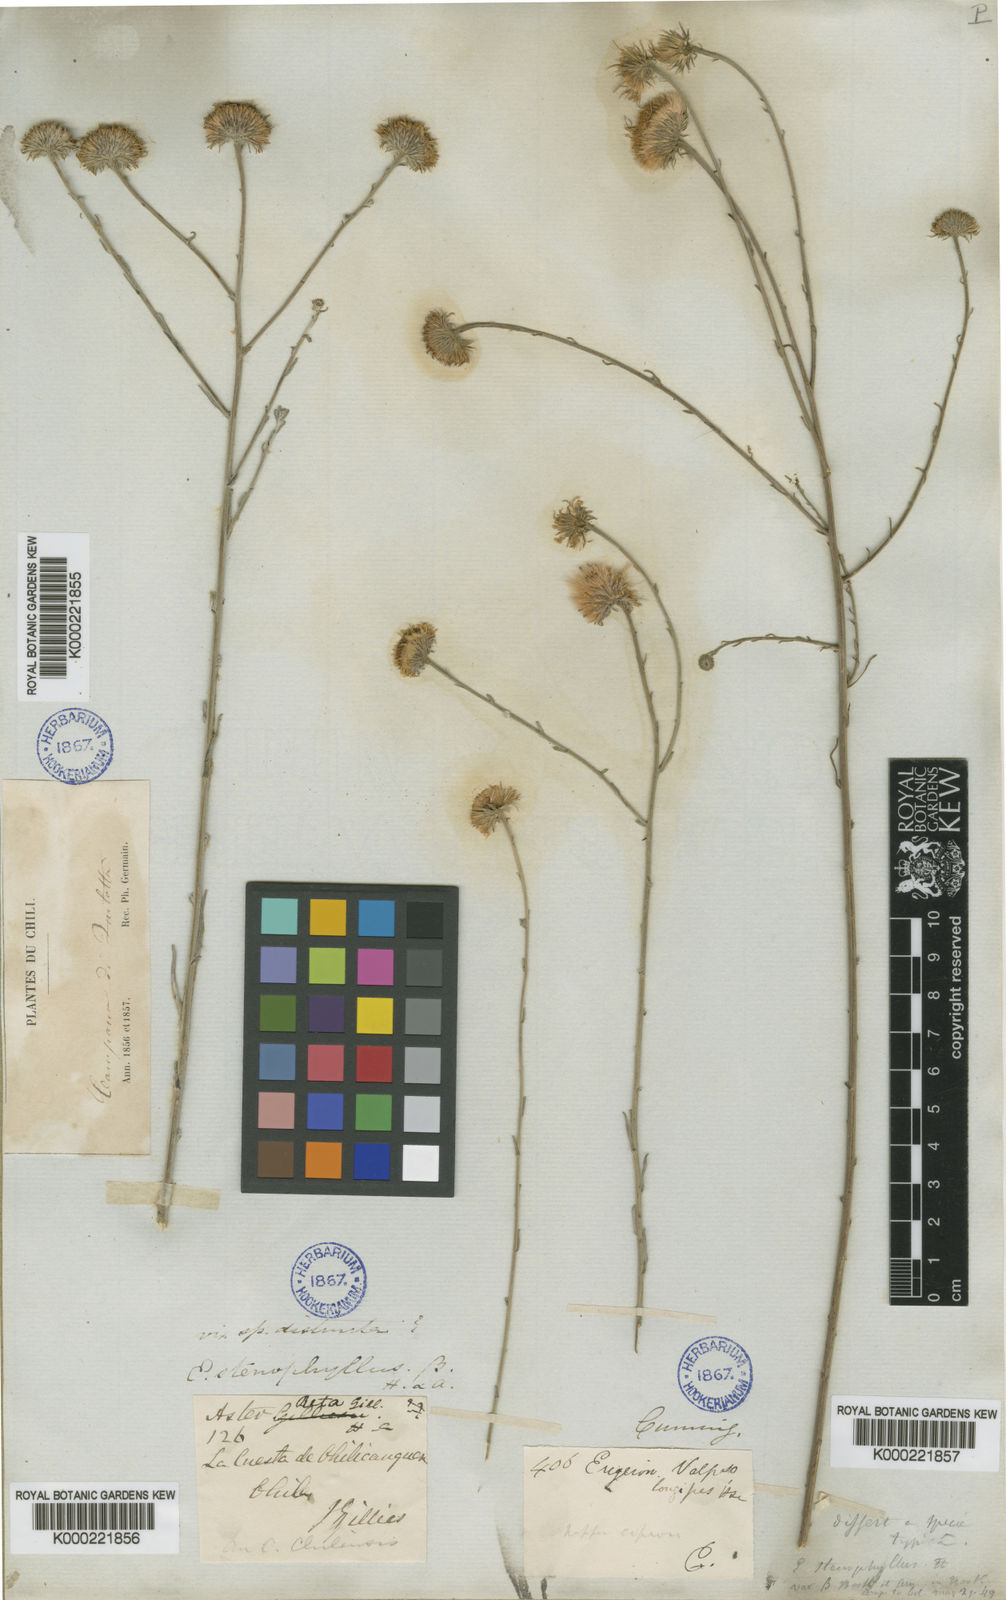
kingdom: Plantae
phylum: Tracheophyta
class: Magnoliopsida
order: Asterales
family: Asteraceae
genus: Erigeron
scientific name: Erigeron stenophyllus
